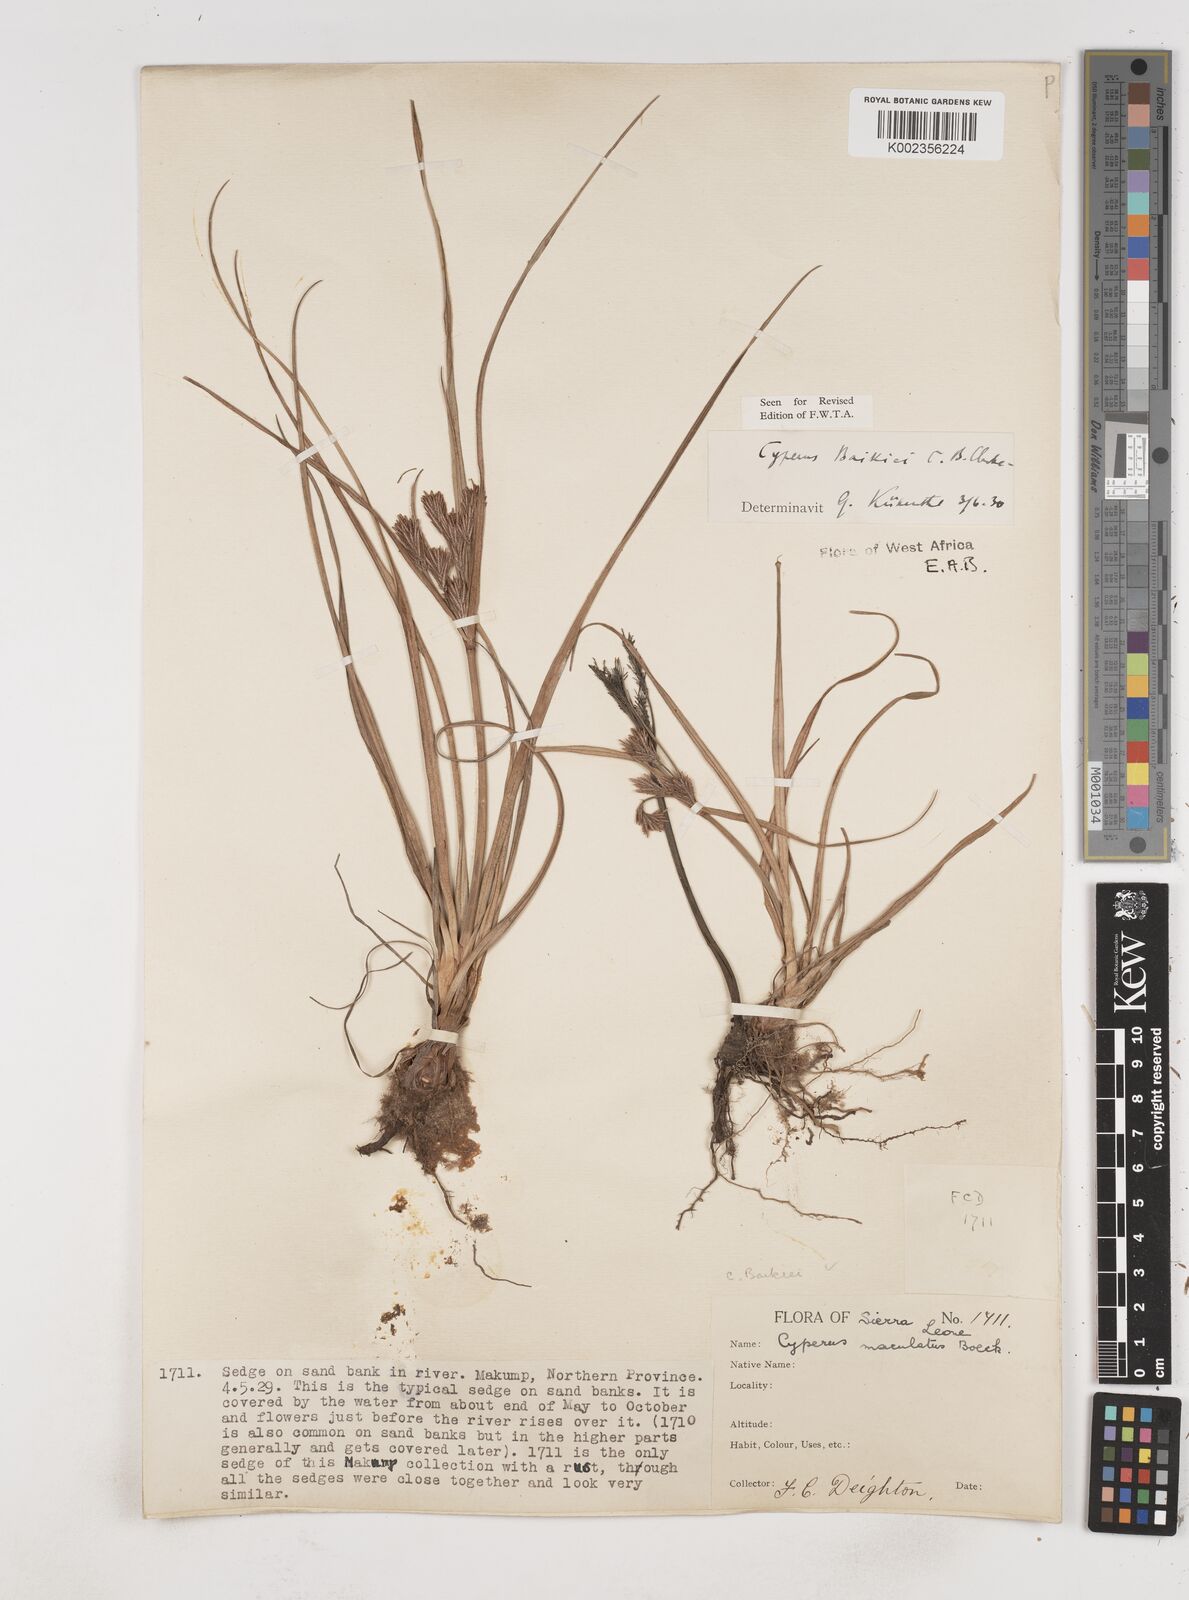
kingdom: Plantae
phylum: Tracheophyta
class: Liliopsida
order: Poales
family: Cyperaceae
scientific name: Cyperaceae
